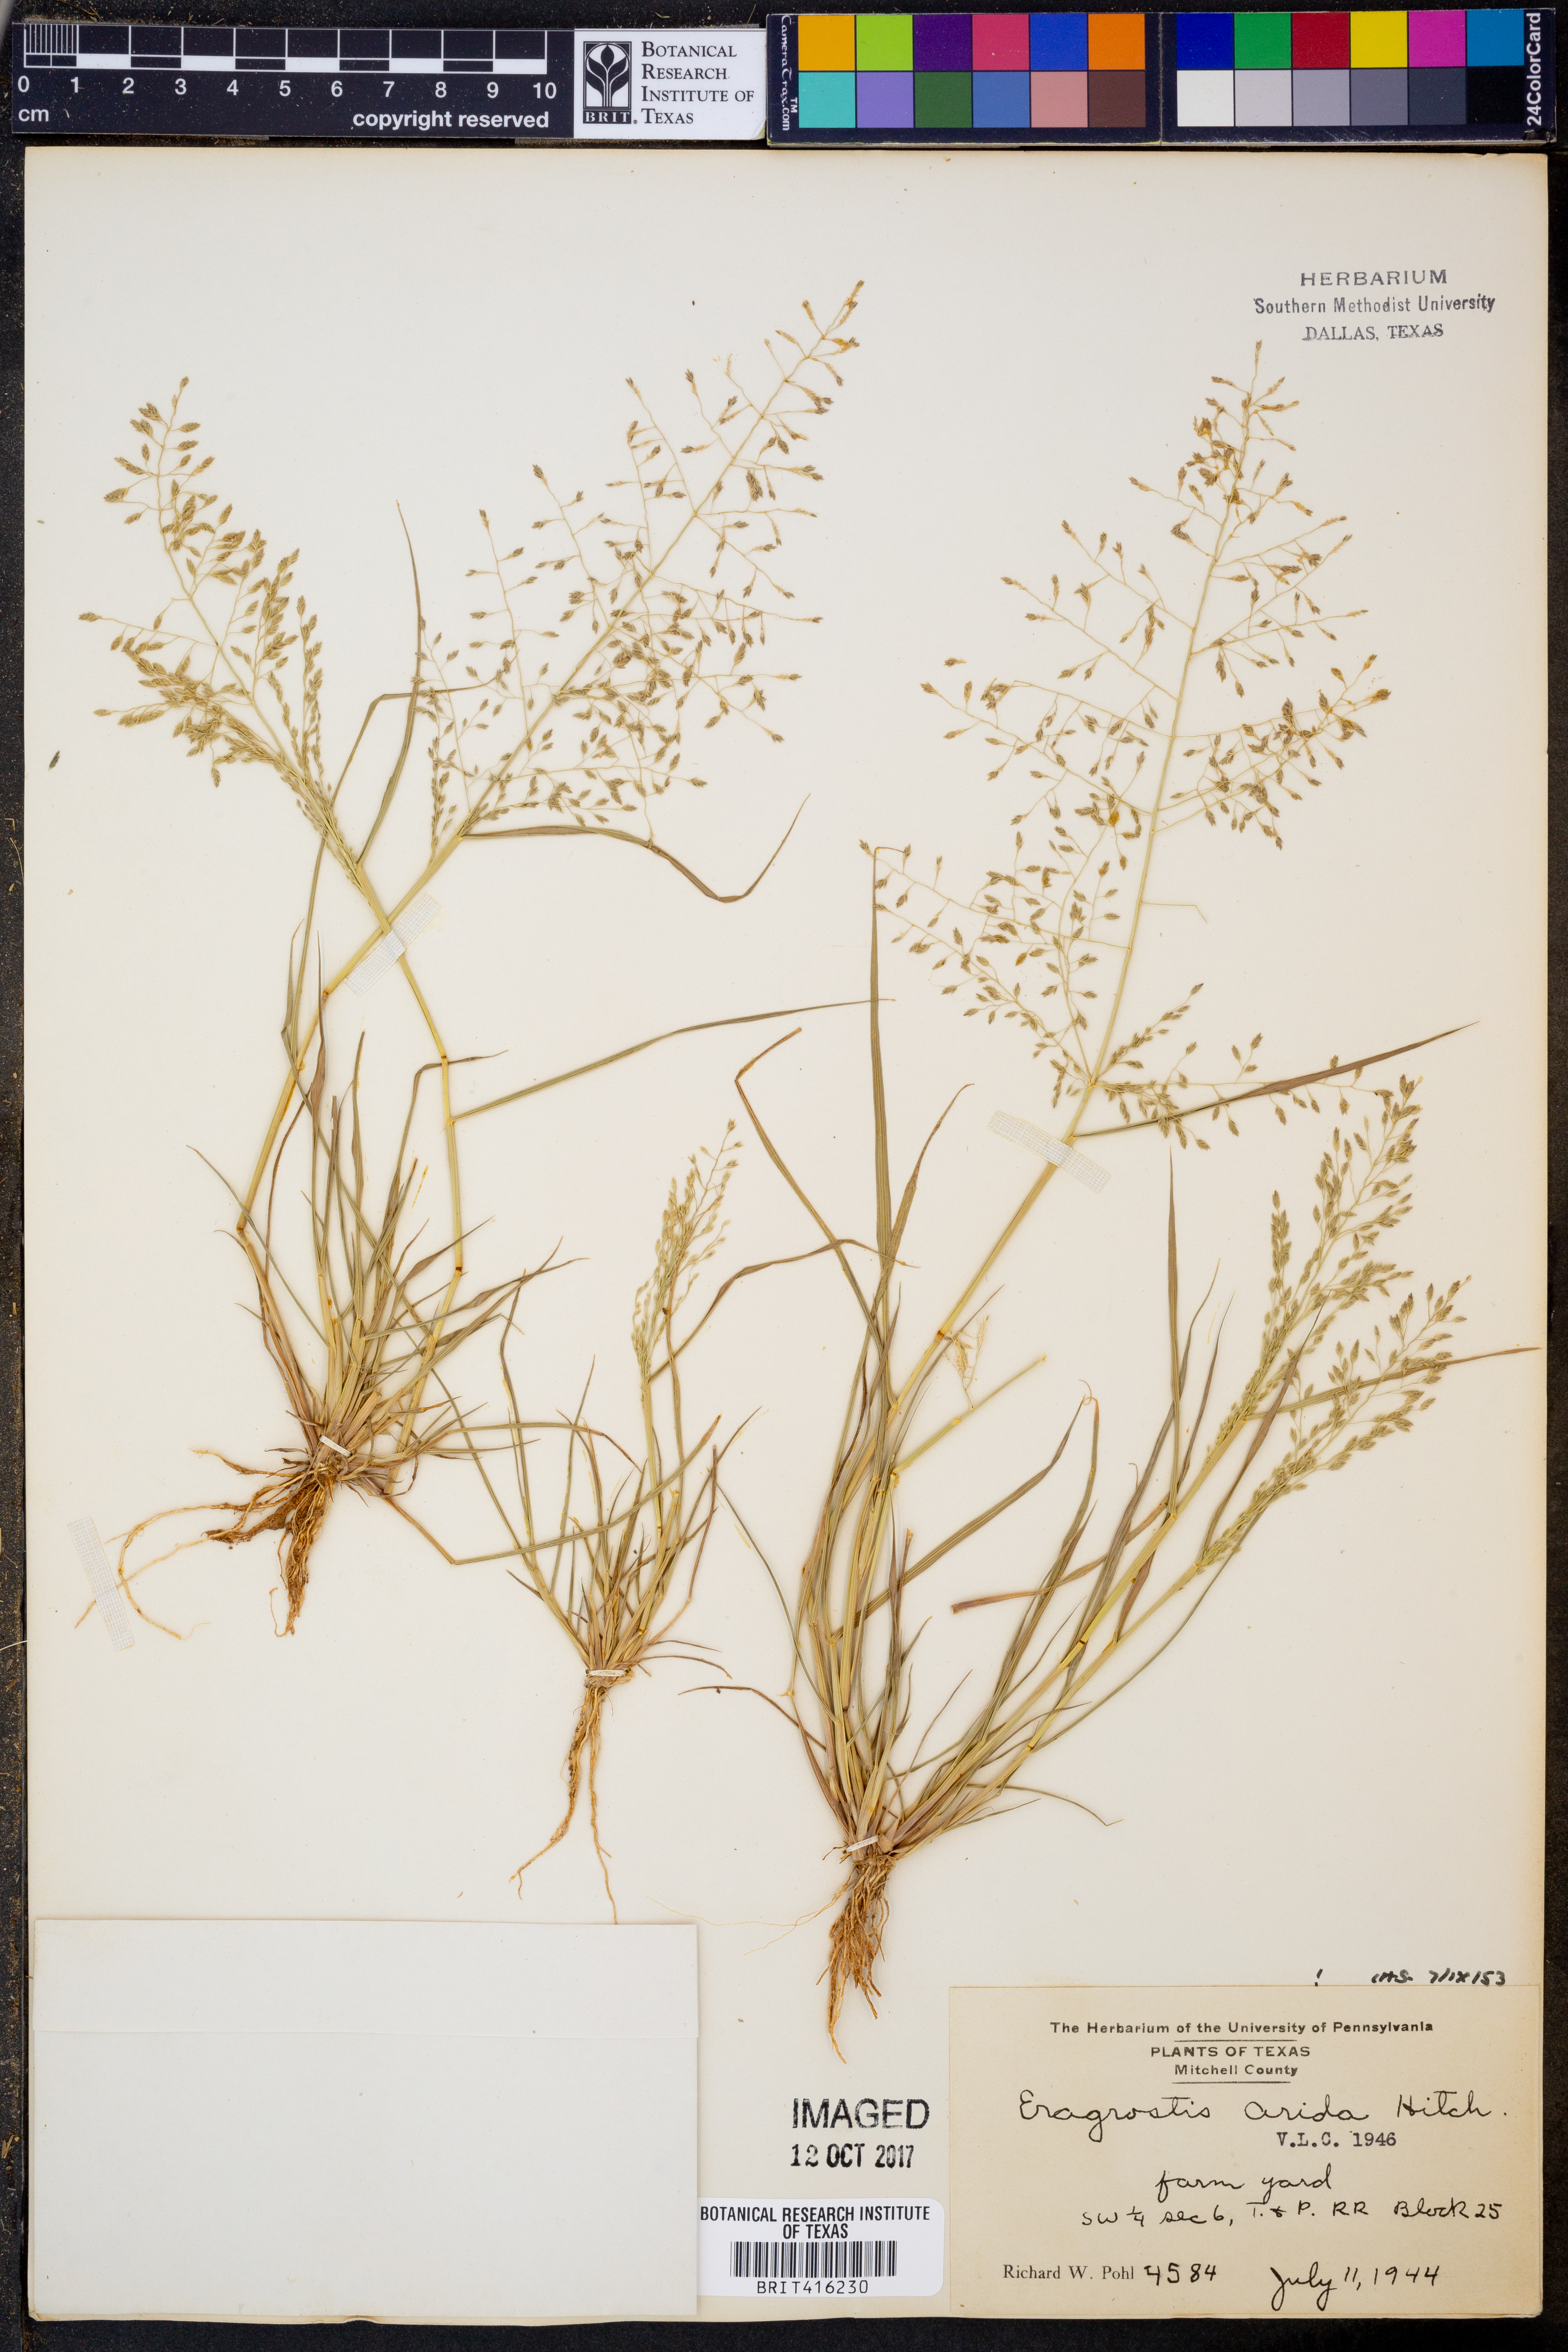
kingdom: Plantae
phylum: Tracheophyta
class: Liliopsida
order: Poales
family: Poaceae
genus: Eragrostis
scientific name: Eragrostis tephrosanthos
